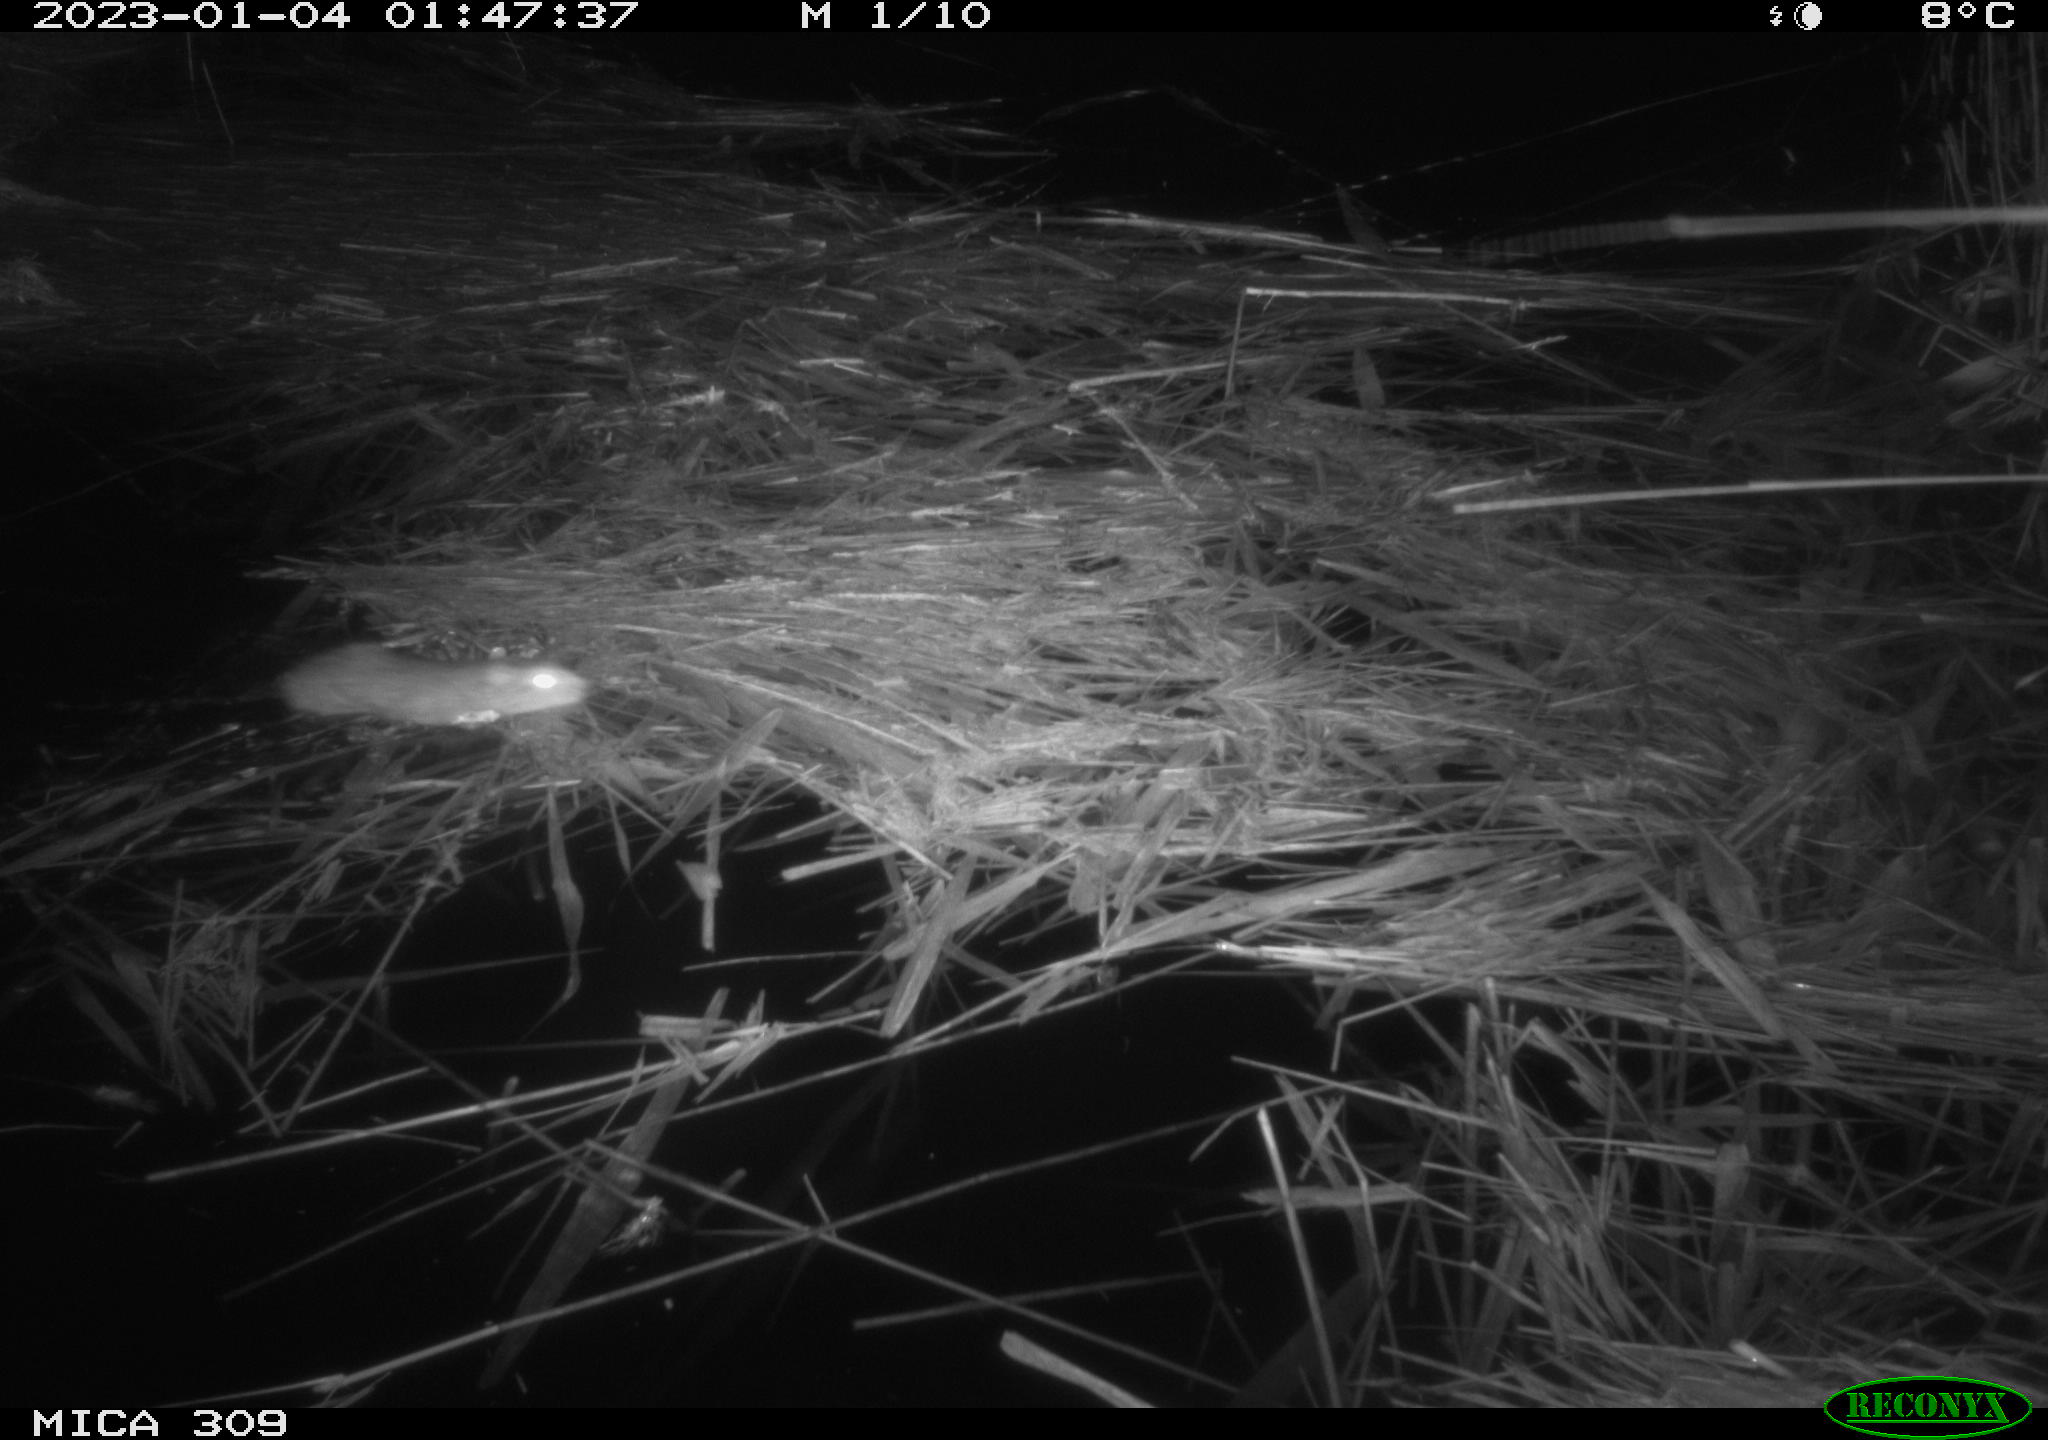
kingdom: Animalia
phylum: Chordata
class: Mammalia
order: Rodentia
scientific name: Rodentia
